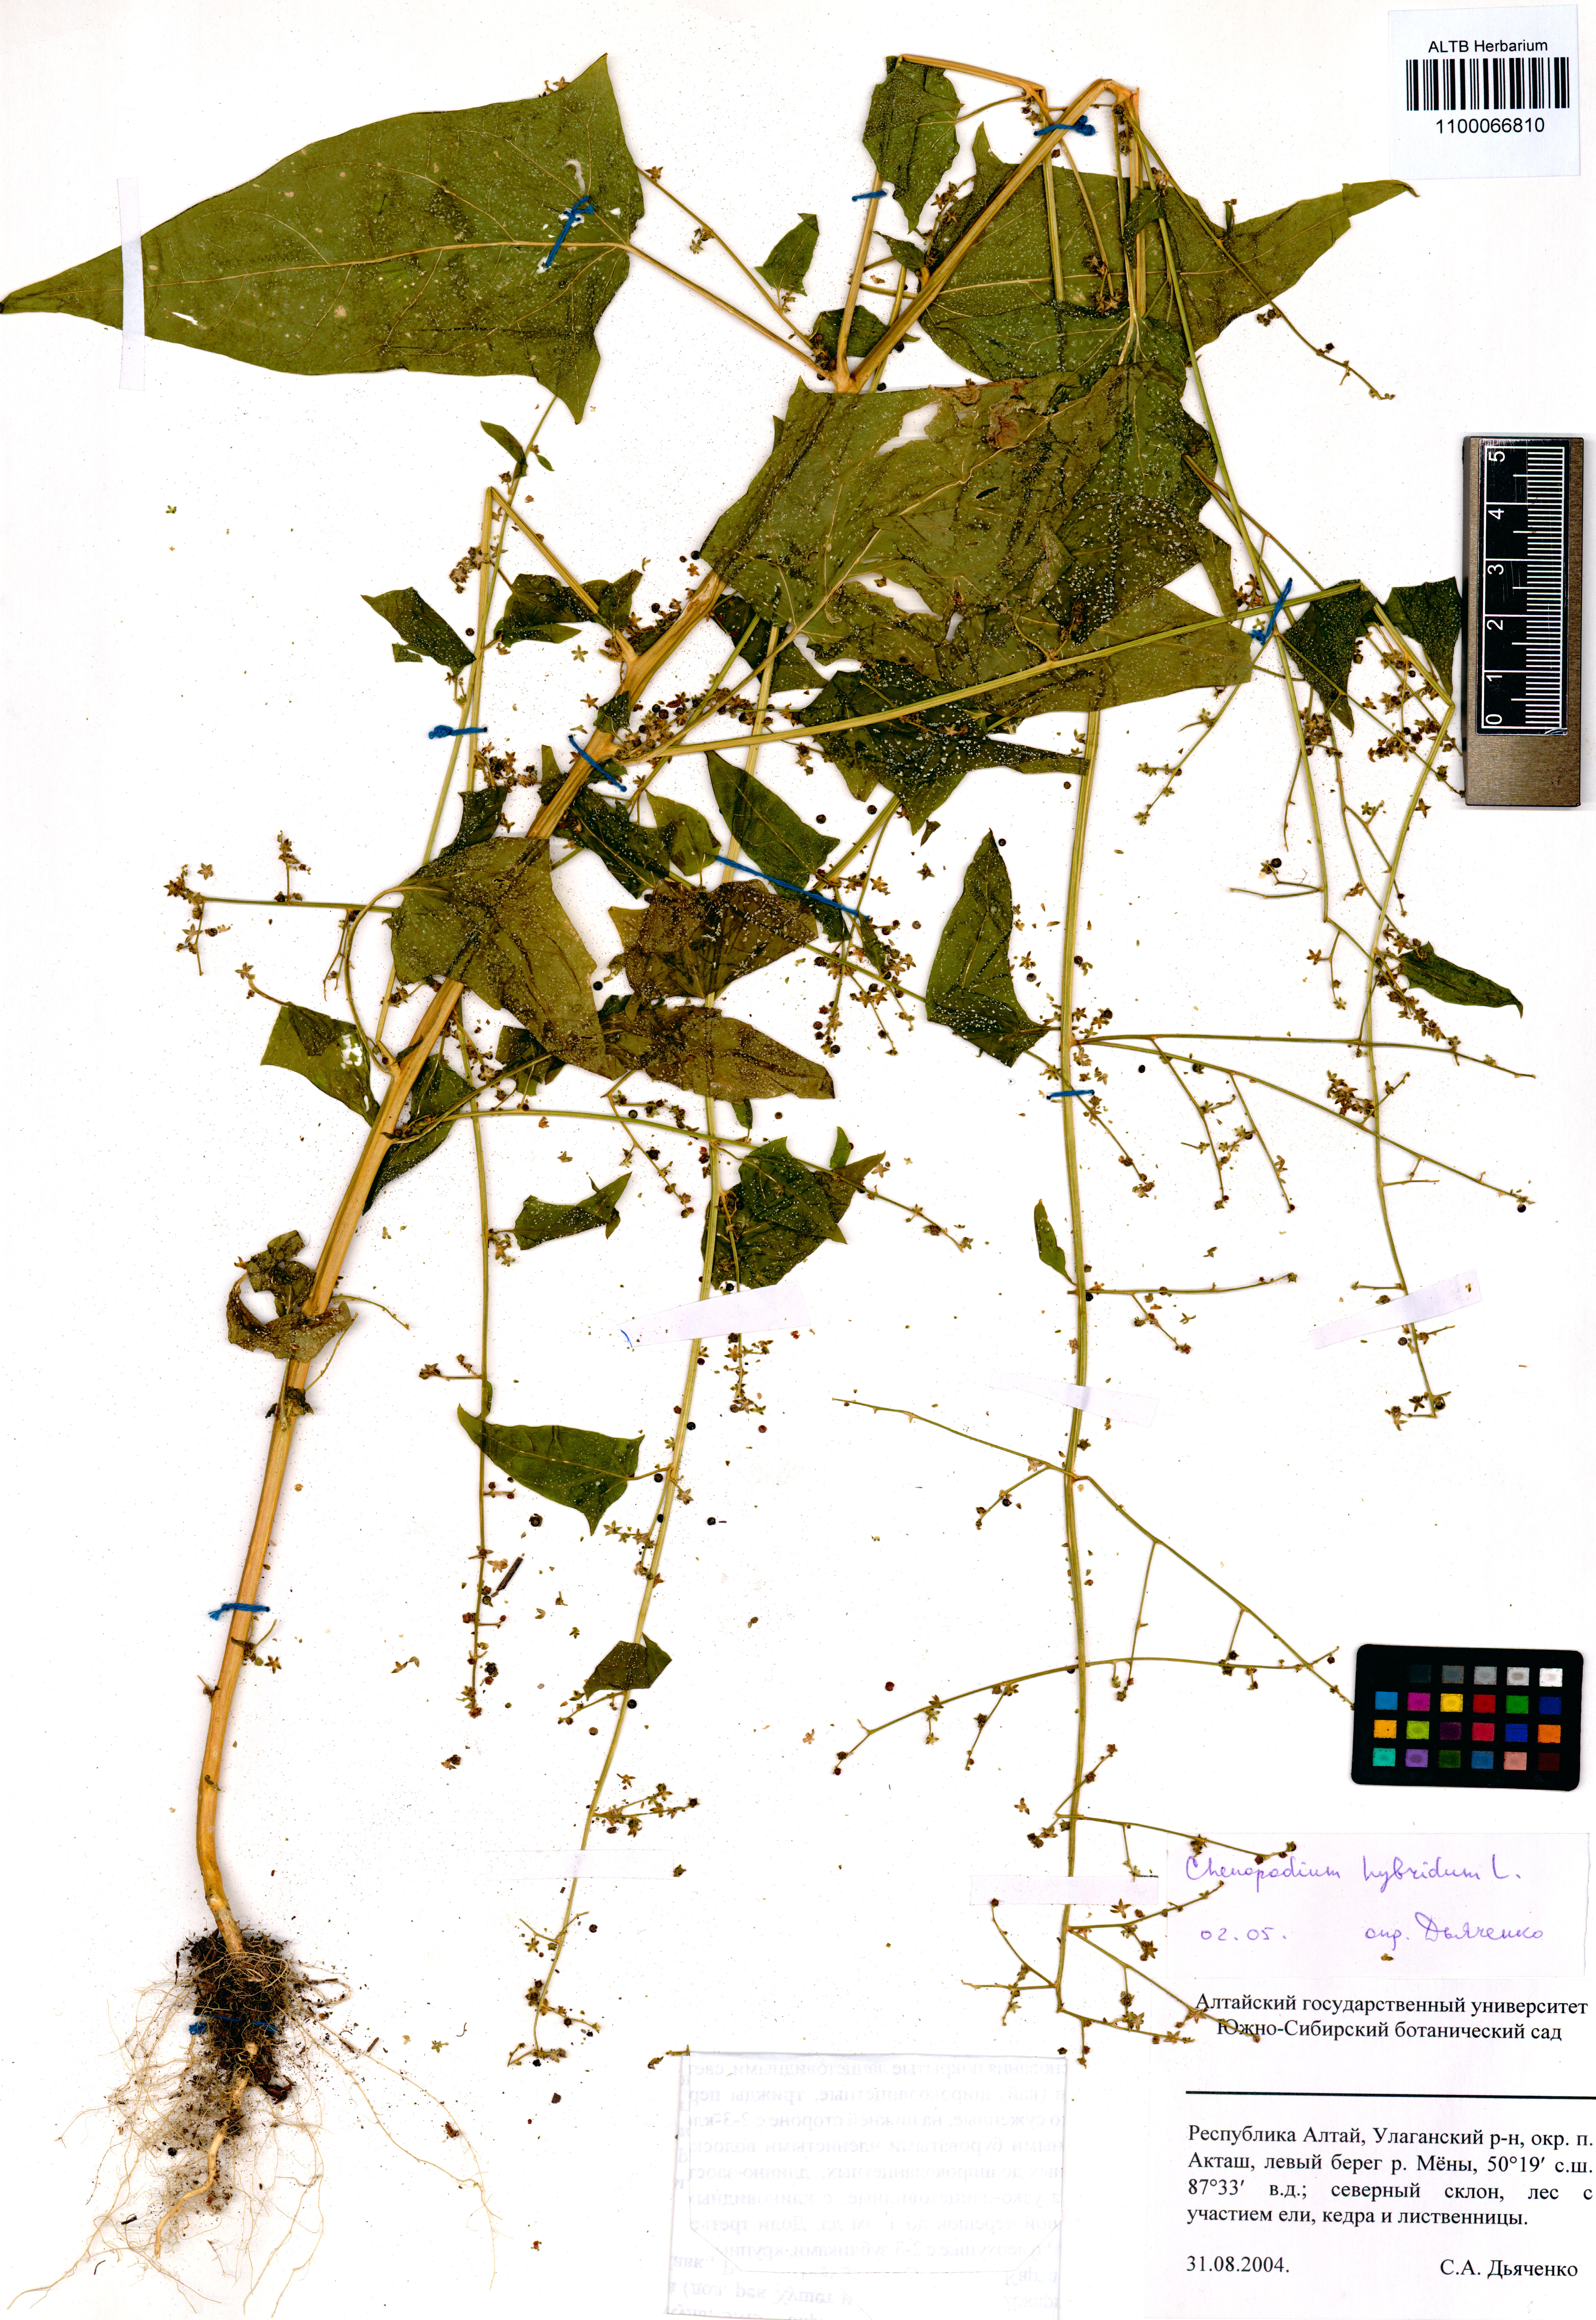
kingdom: Plantae
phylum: Tracheophyta
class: Magnoliopsida
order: Caryophyllales
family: Amaranthaceae
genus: Chenopodiastrum
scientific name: Chenopodiastrum hybridum
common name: Mapleleaf goosefoot
